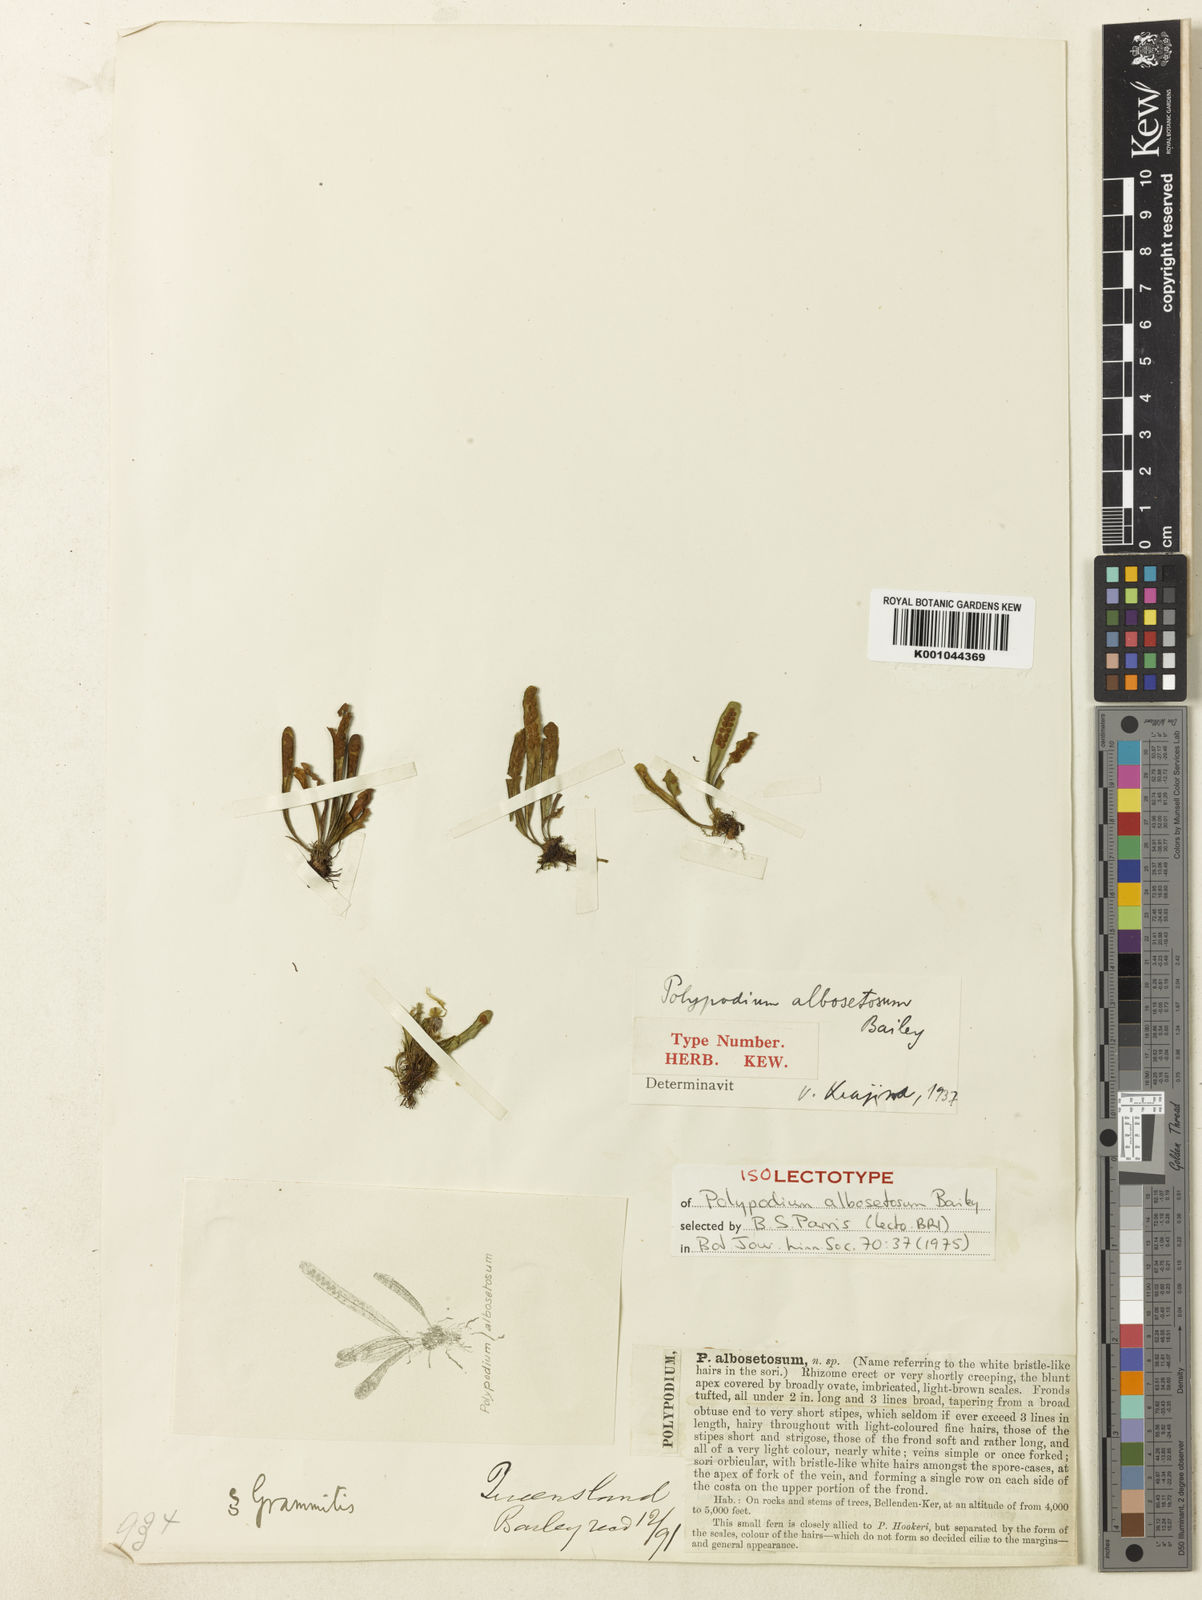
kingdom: Plantae
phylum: Tracheophyta
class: Polypodiopsida
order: Polypodiales
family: Polypodiaceae
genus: Oreogrammitis
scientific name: Oreogrammitis albosetosa
